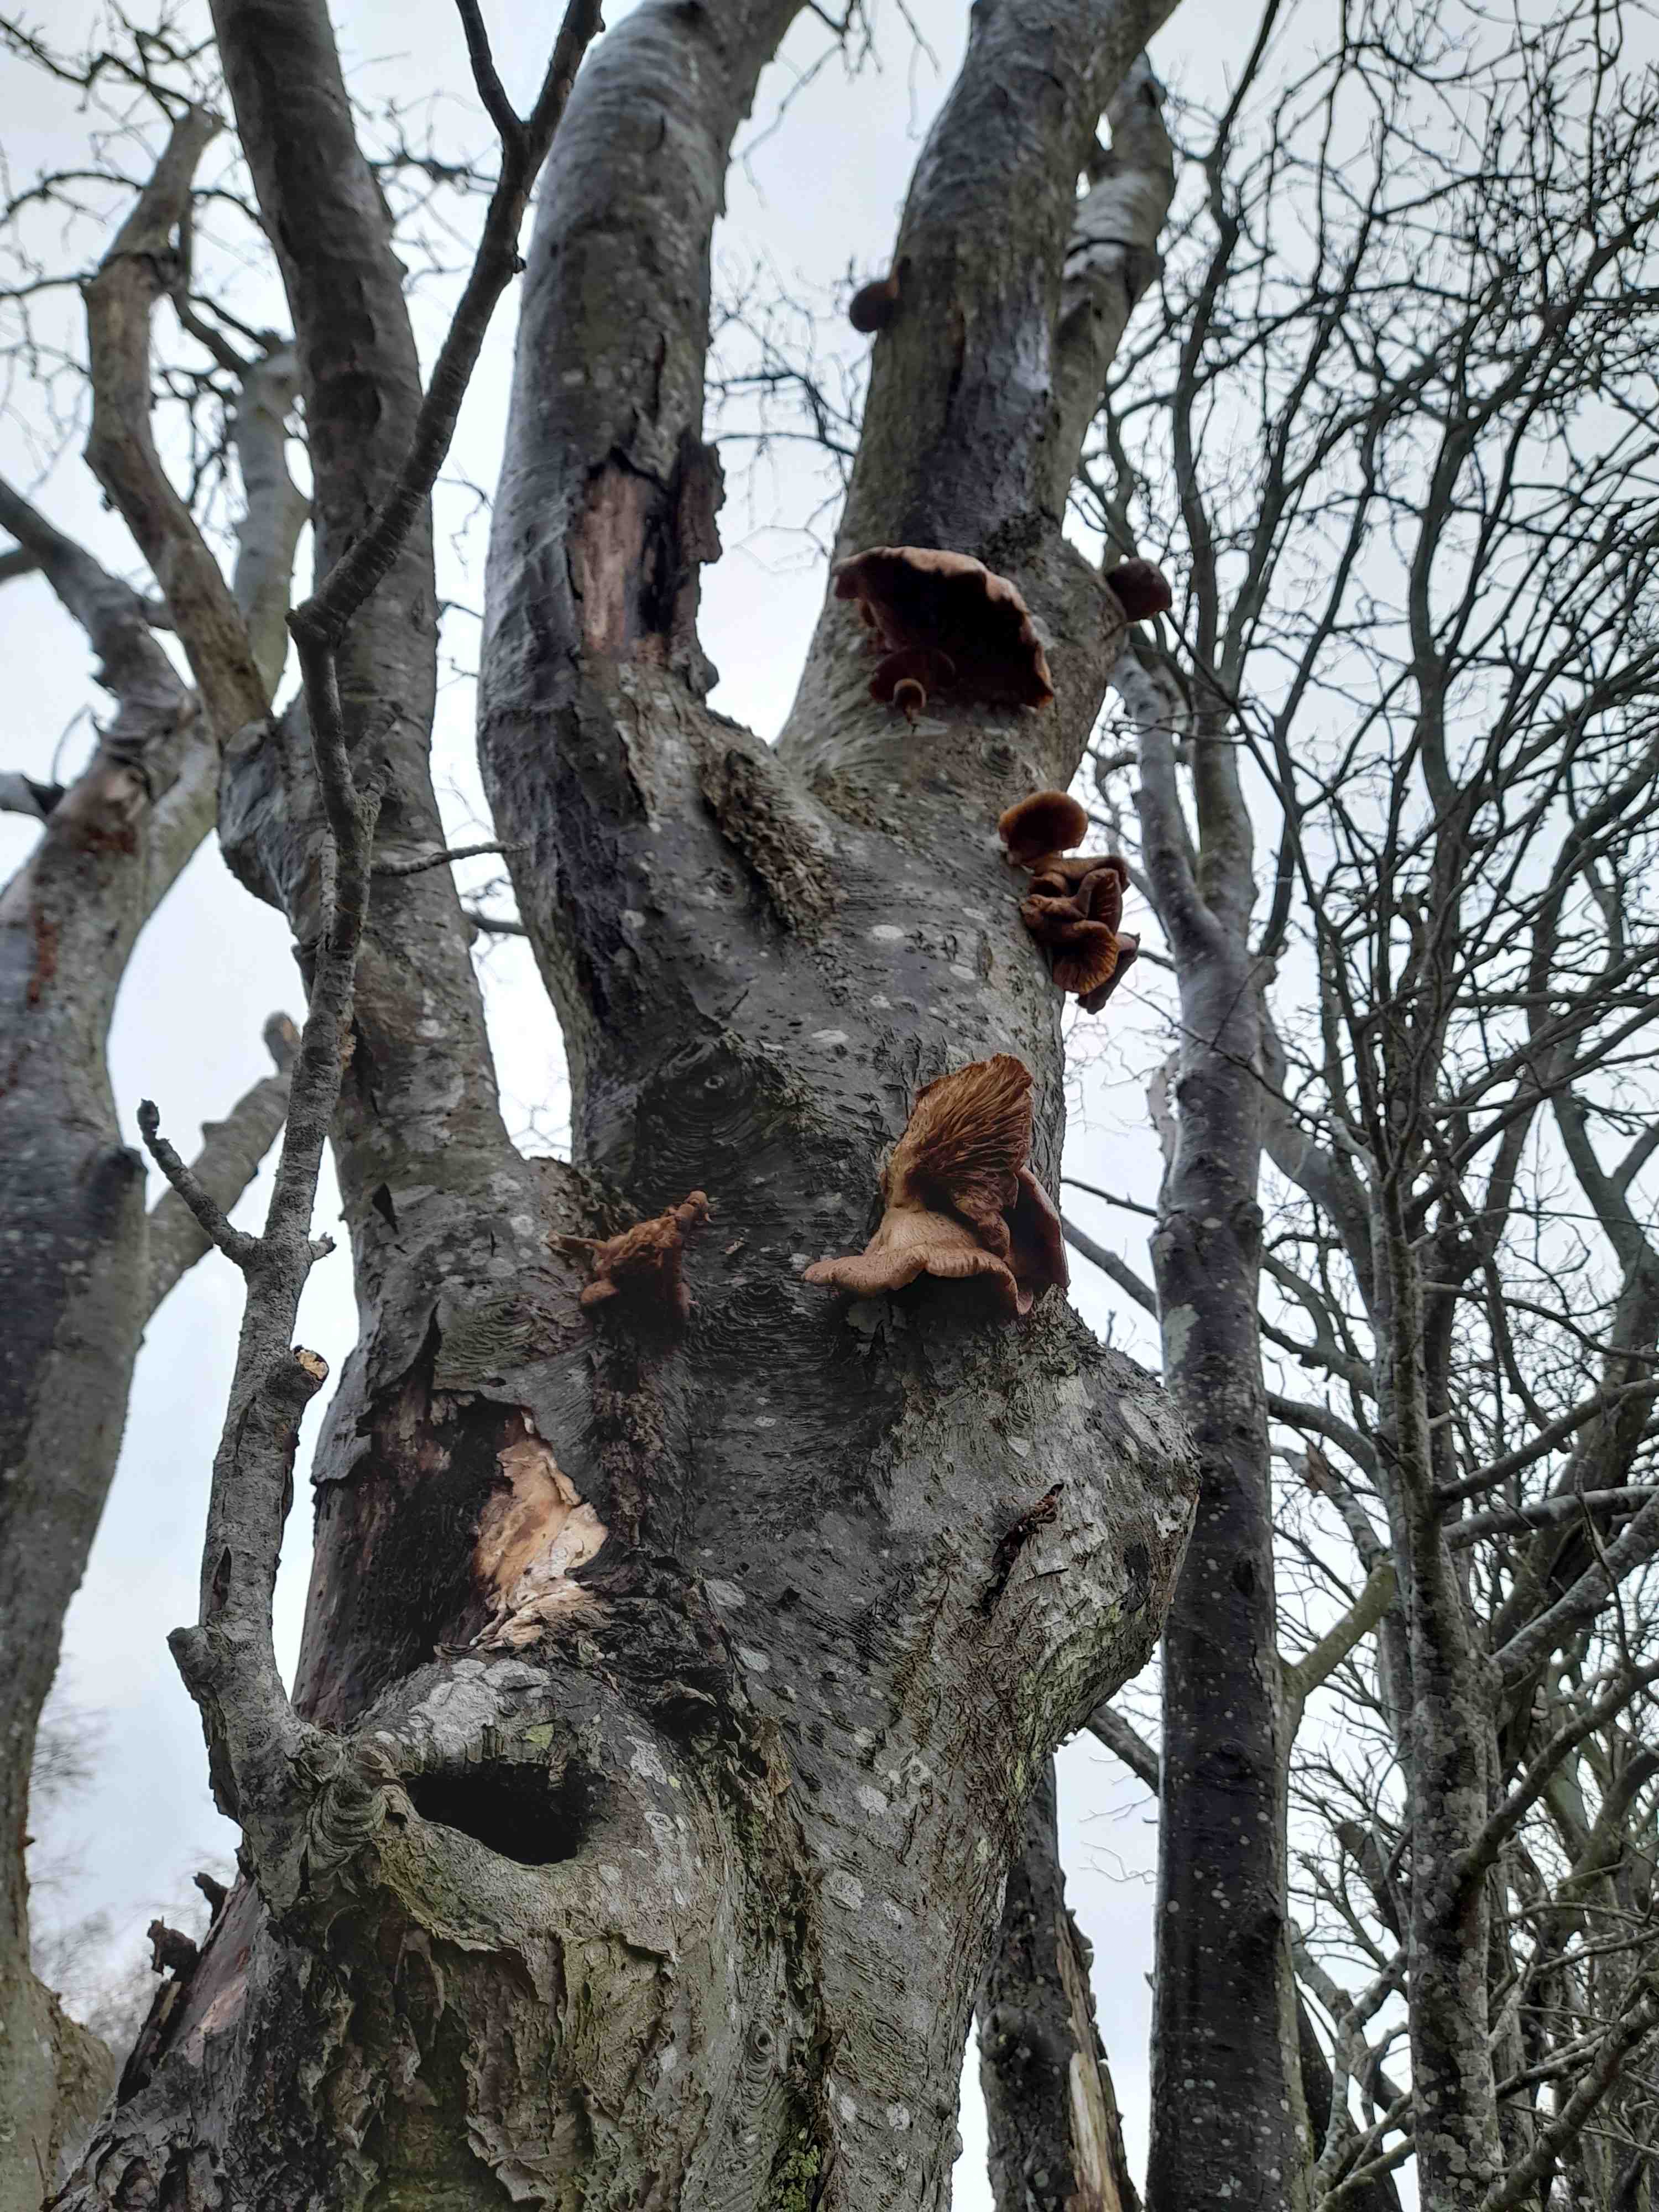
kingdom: Fungi
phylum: Basidiomycota
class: Agaricomycetes
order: Agaricales
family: Pleurotaceae
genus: Pleurotus
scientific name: Pleurotus ostreatus
